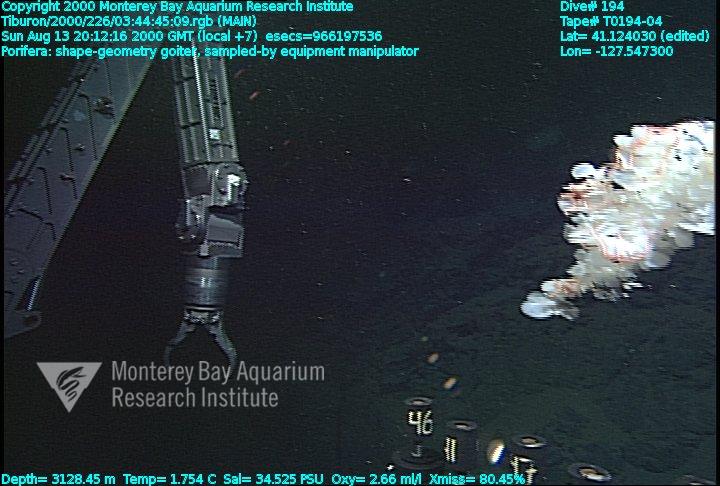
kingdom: Animalia
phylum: Porifera
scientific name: Porifera
